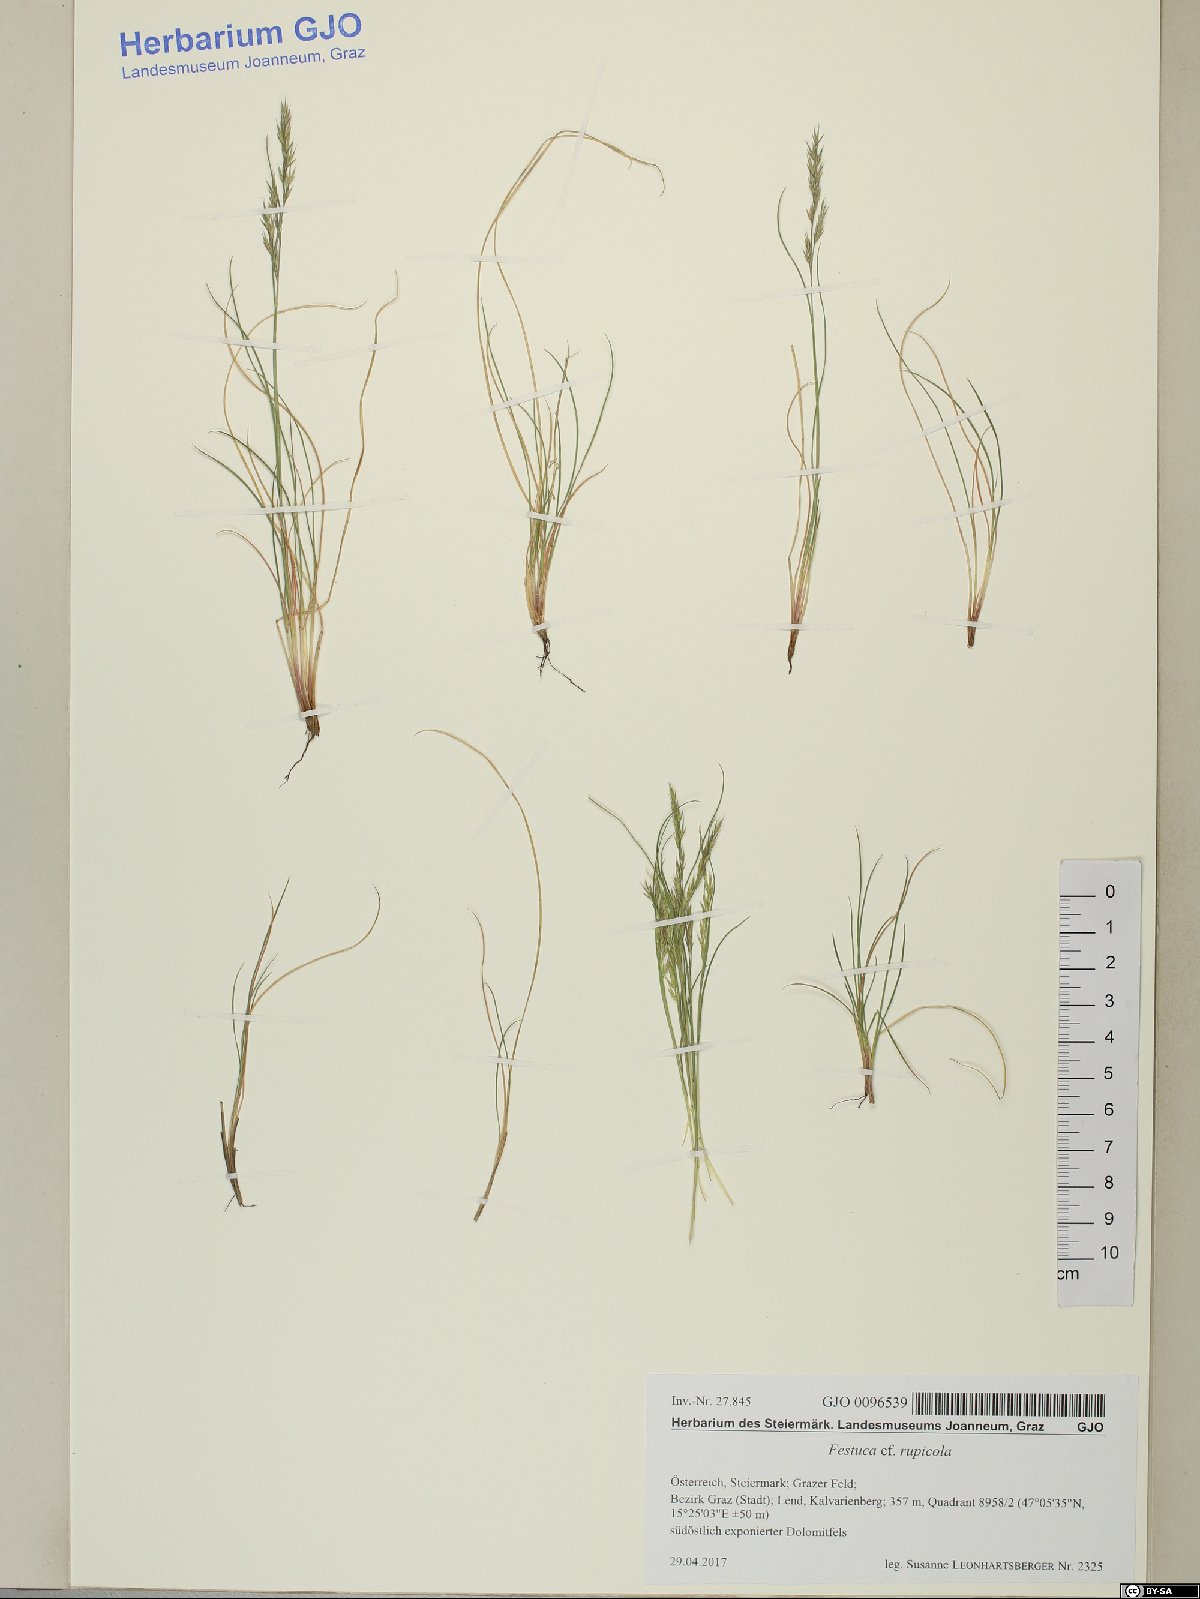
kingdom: Plantae
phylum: Tracheophyta
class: Liliopsida
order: Poales
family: Poaceae
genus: Festuca
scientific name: Festuca rupicola
